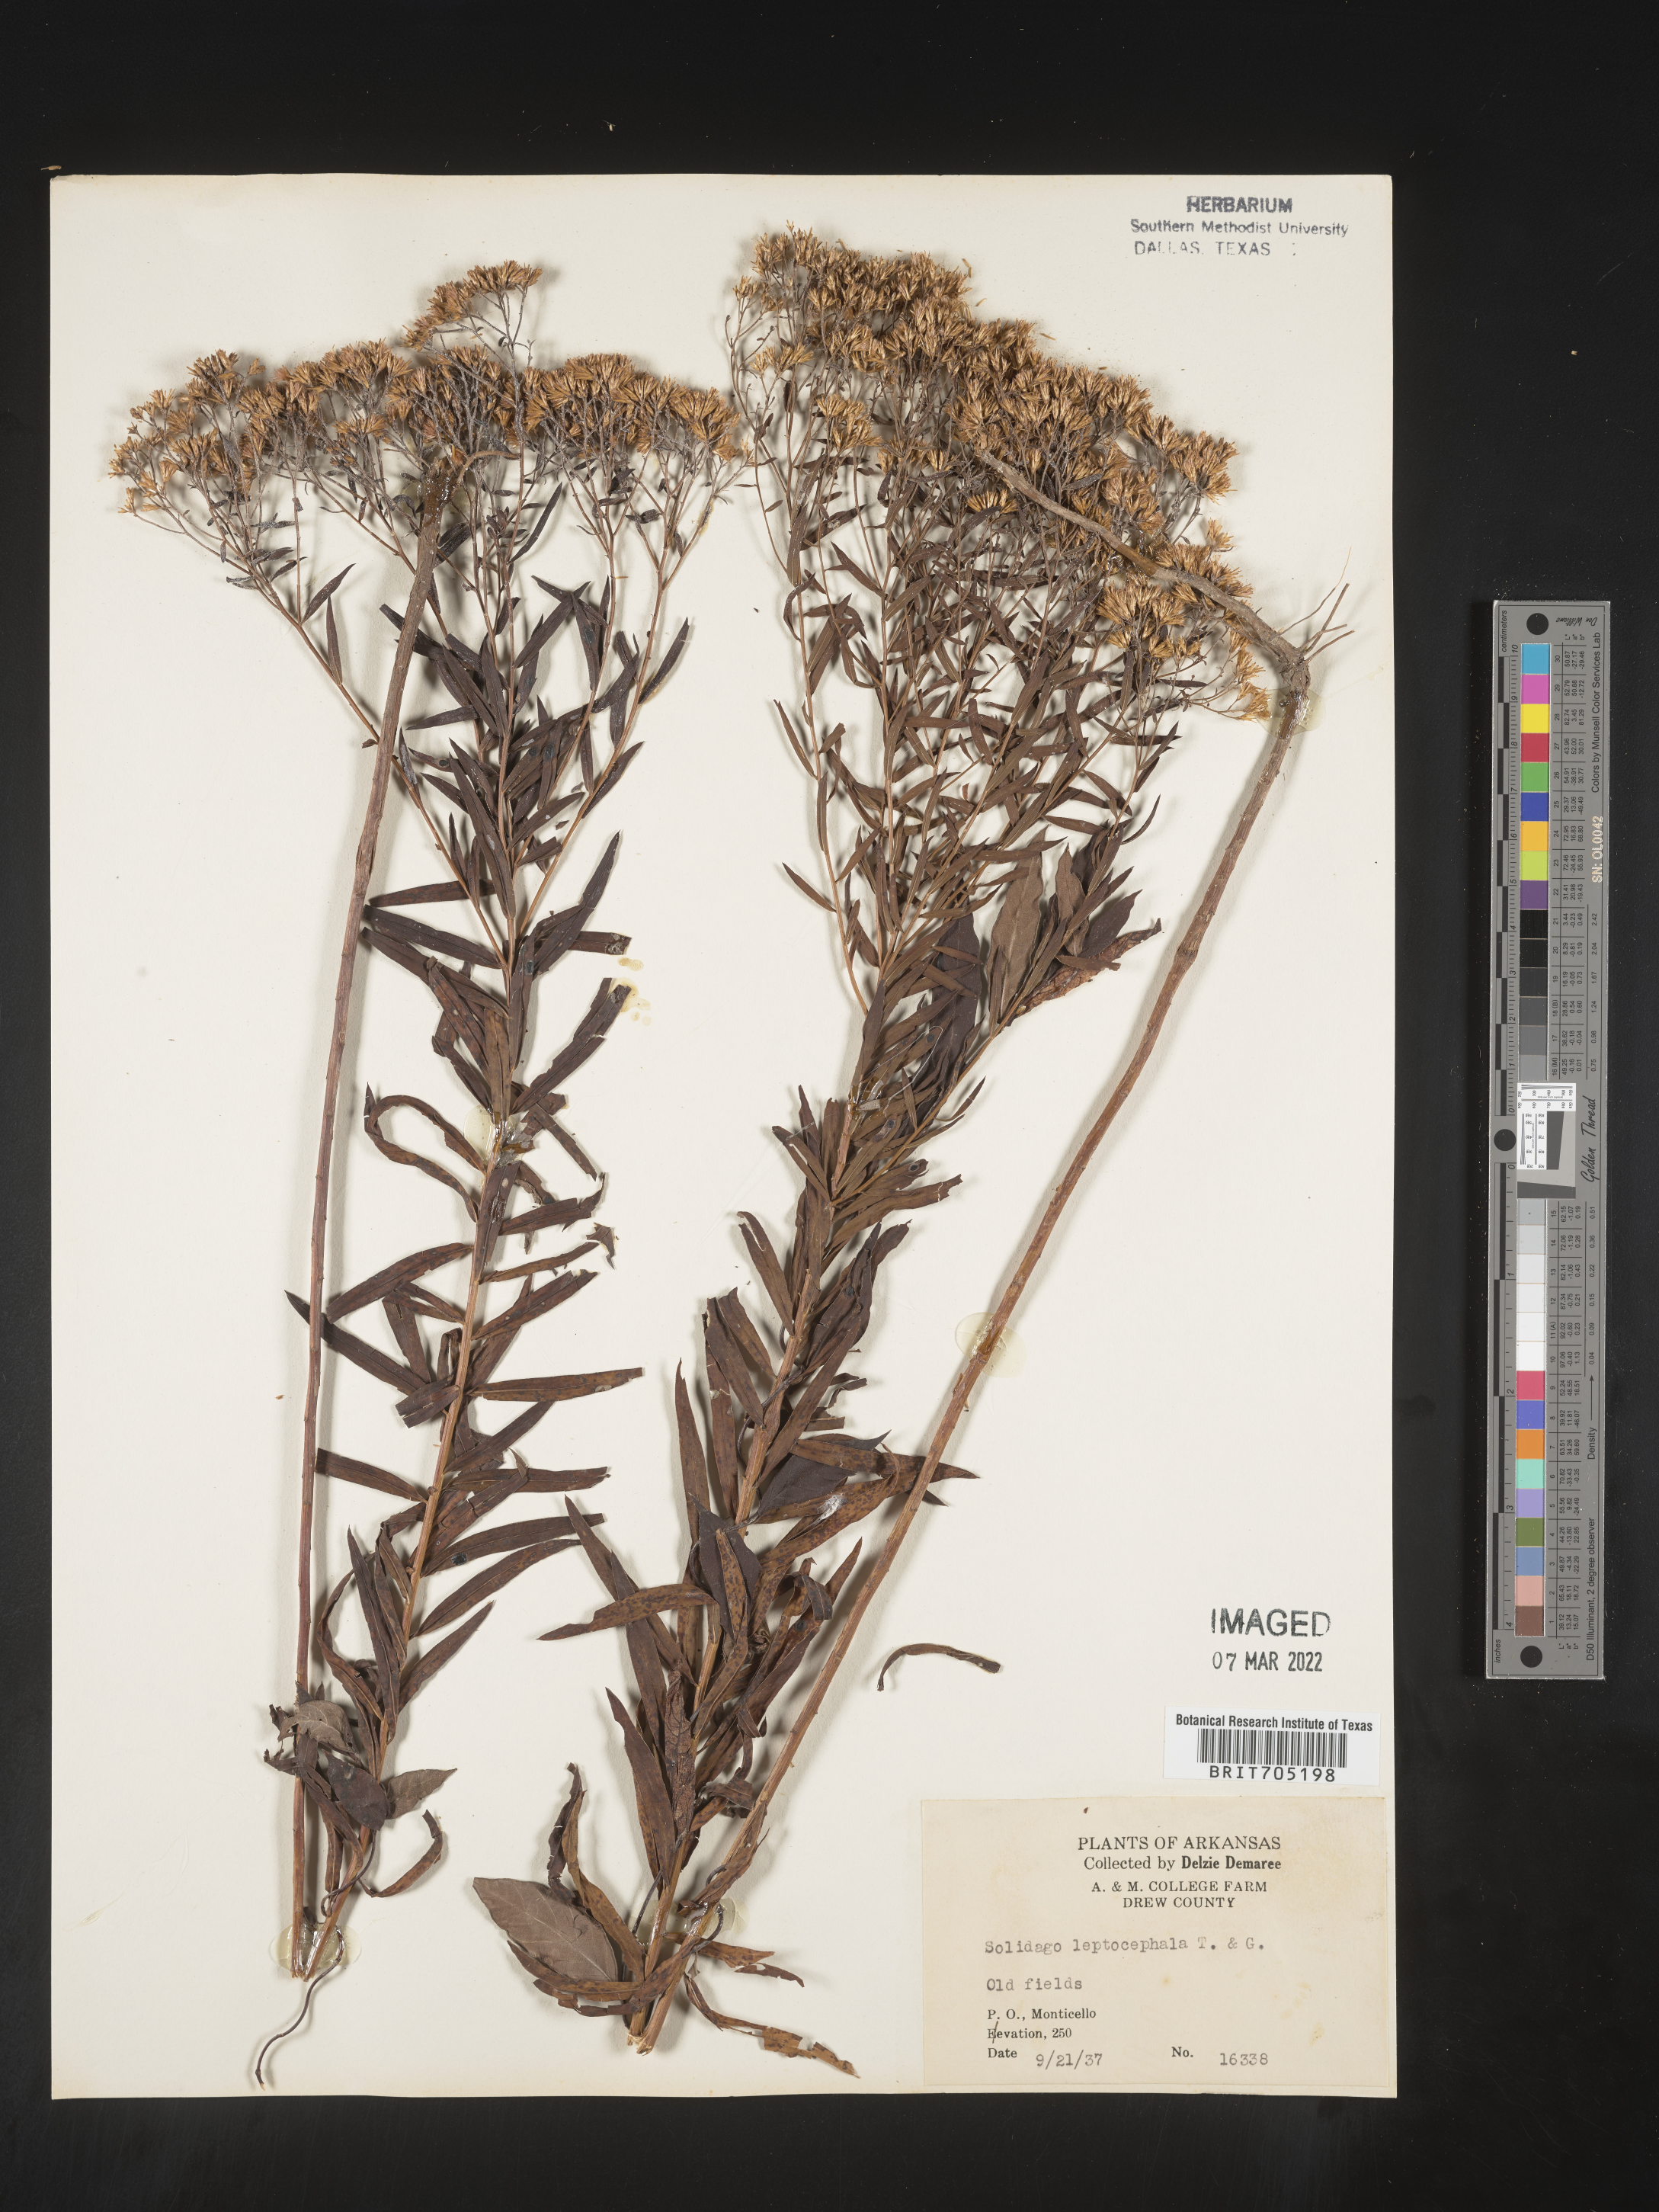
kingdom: Plantae
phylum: Tracheophyta
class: Magnoliopsida
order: Asterales
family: Asteraceae
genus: Euthamia
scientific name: Euthamia leptocephala
